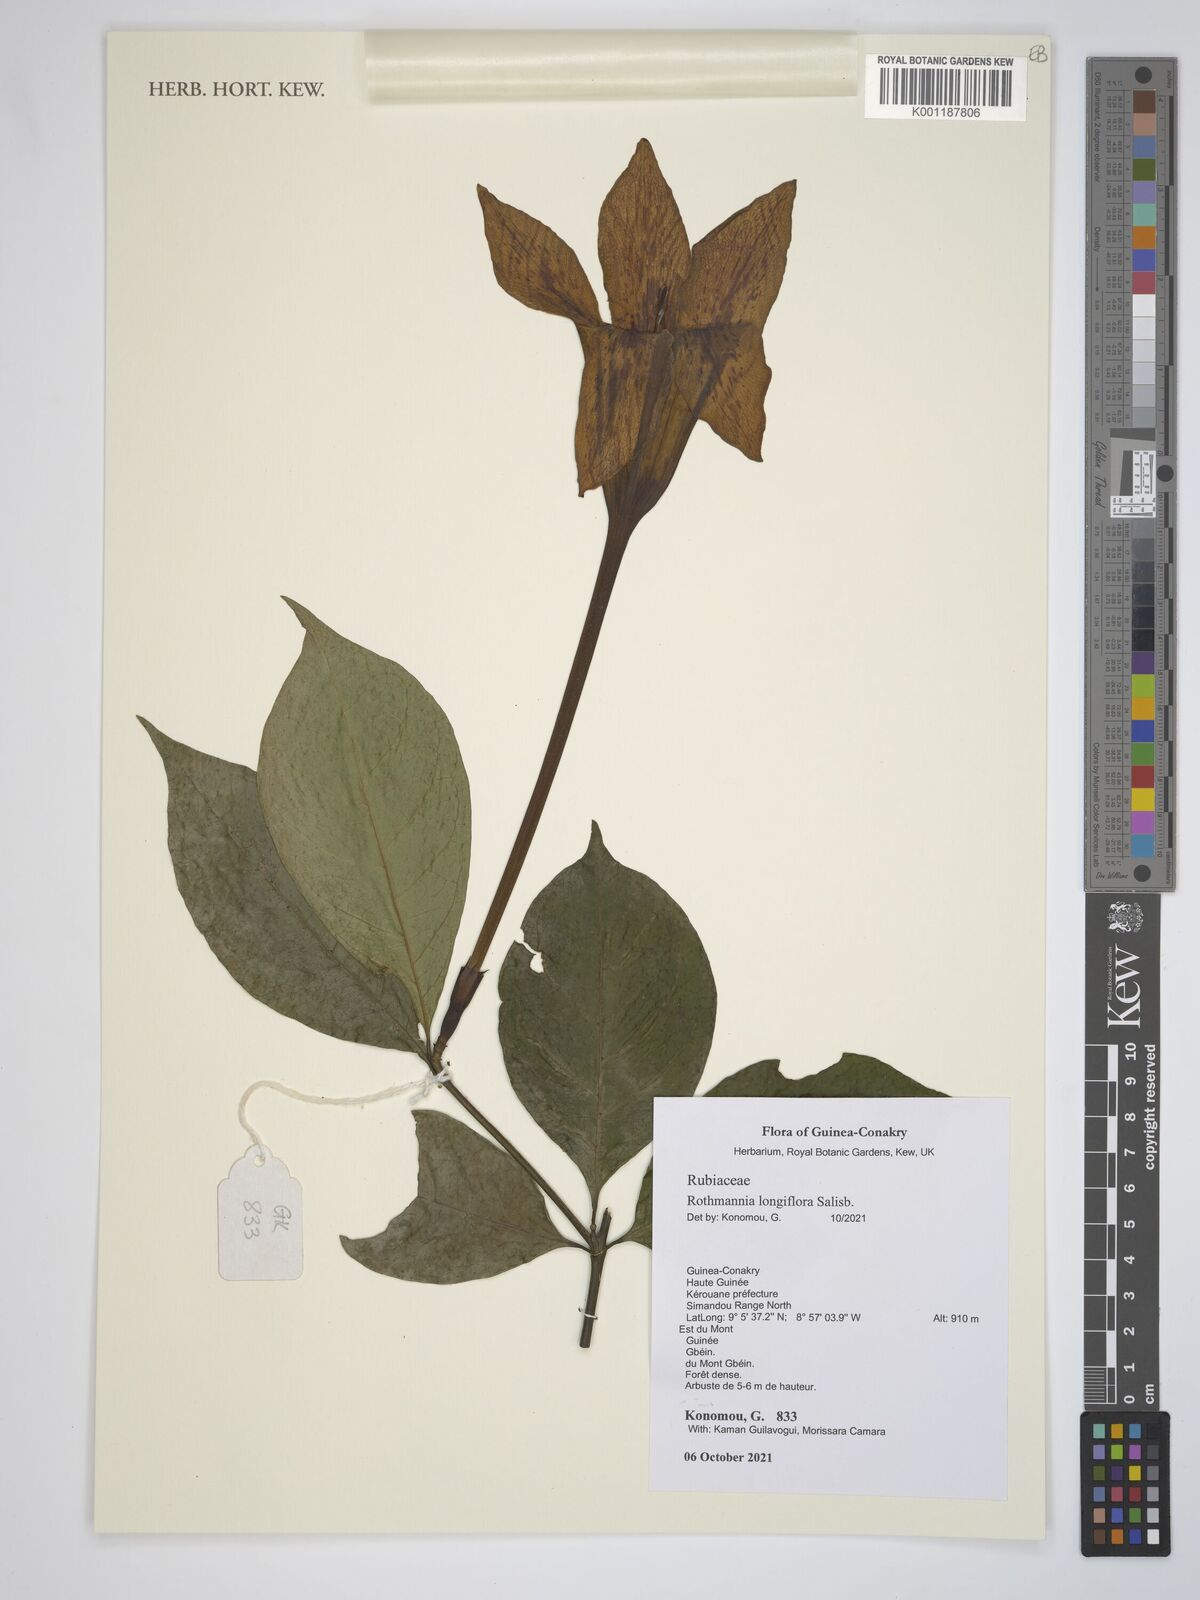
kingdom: Plantae
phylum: Tracheophyta
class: Magnoliopsida
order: Gentianales
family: Rubiaceae
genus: Rothmannia
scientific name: Rothmannia longiflora
